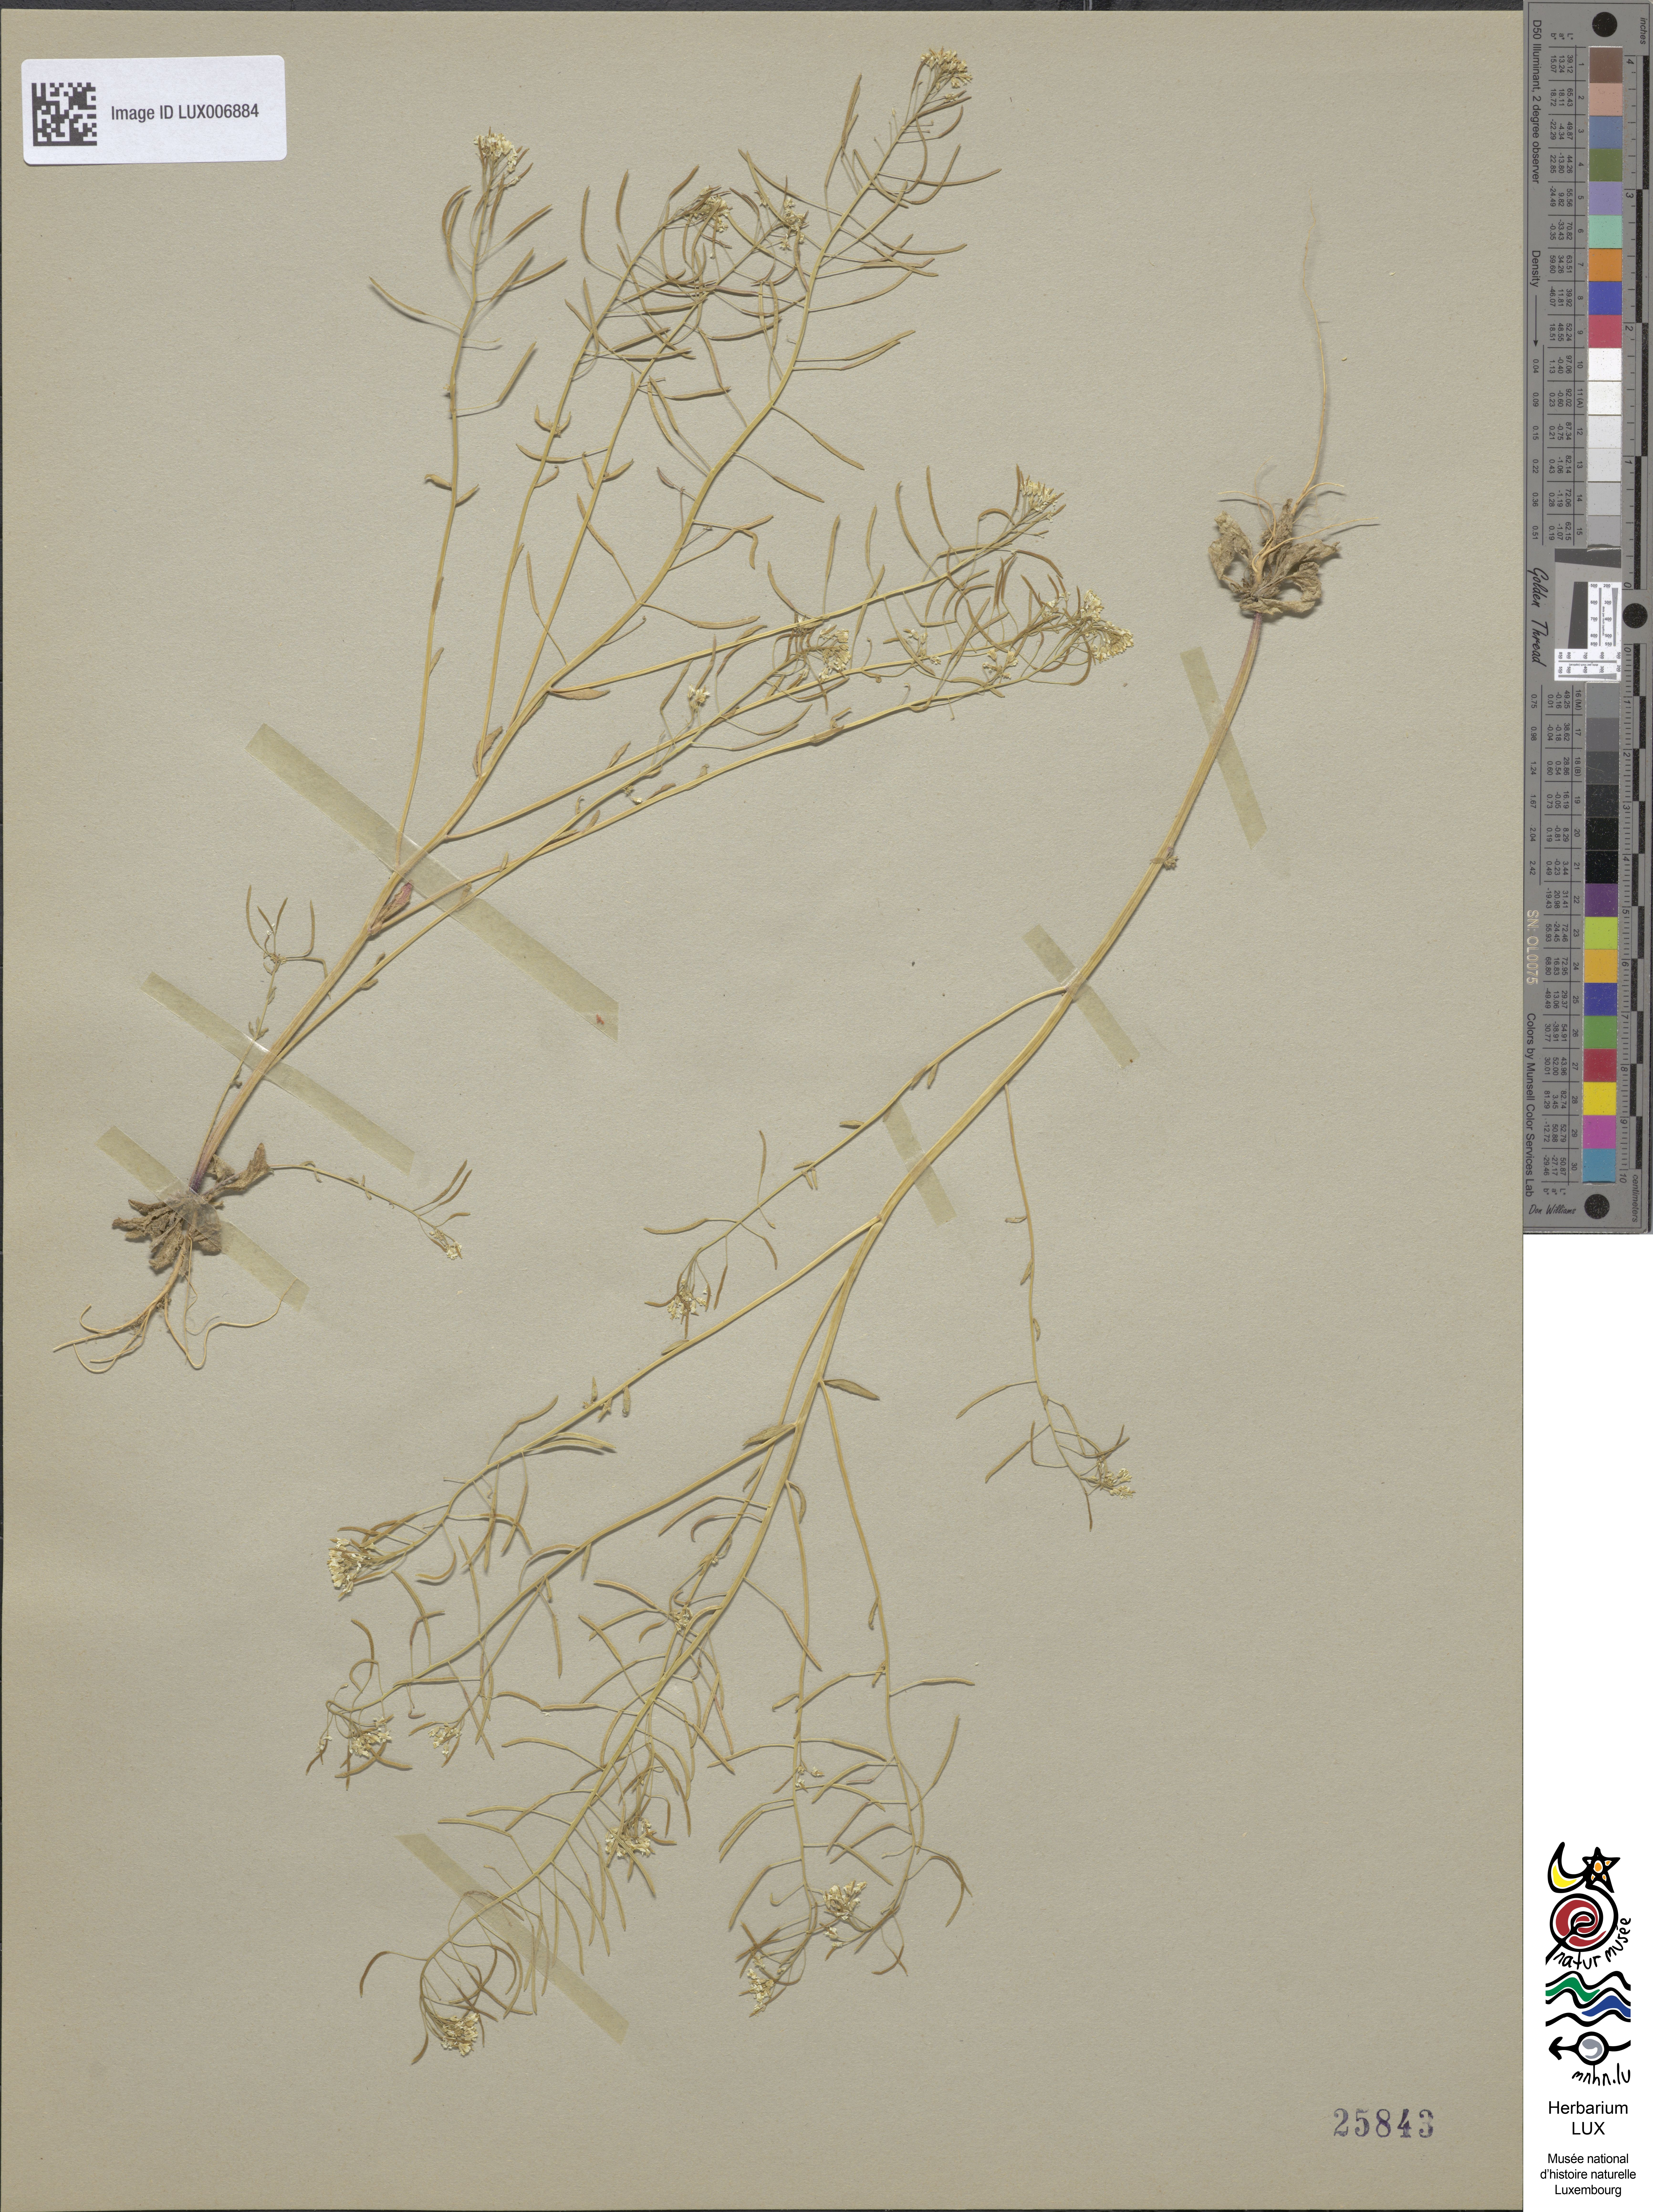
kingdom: Plantae
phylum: Tracheophyta
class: Magnoliopsida
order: Brassicales
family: Brassicaceae
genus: Arabidopsis
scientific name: Arabidopsis thaliana
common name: Thale cress
